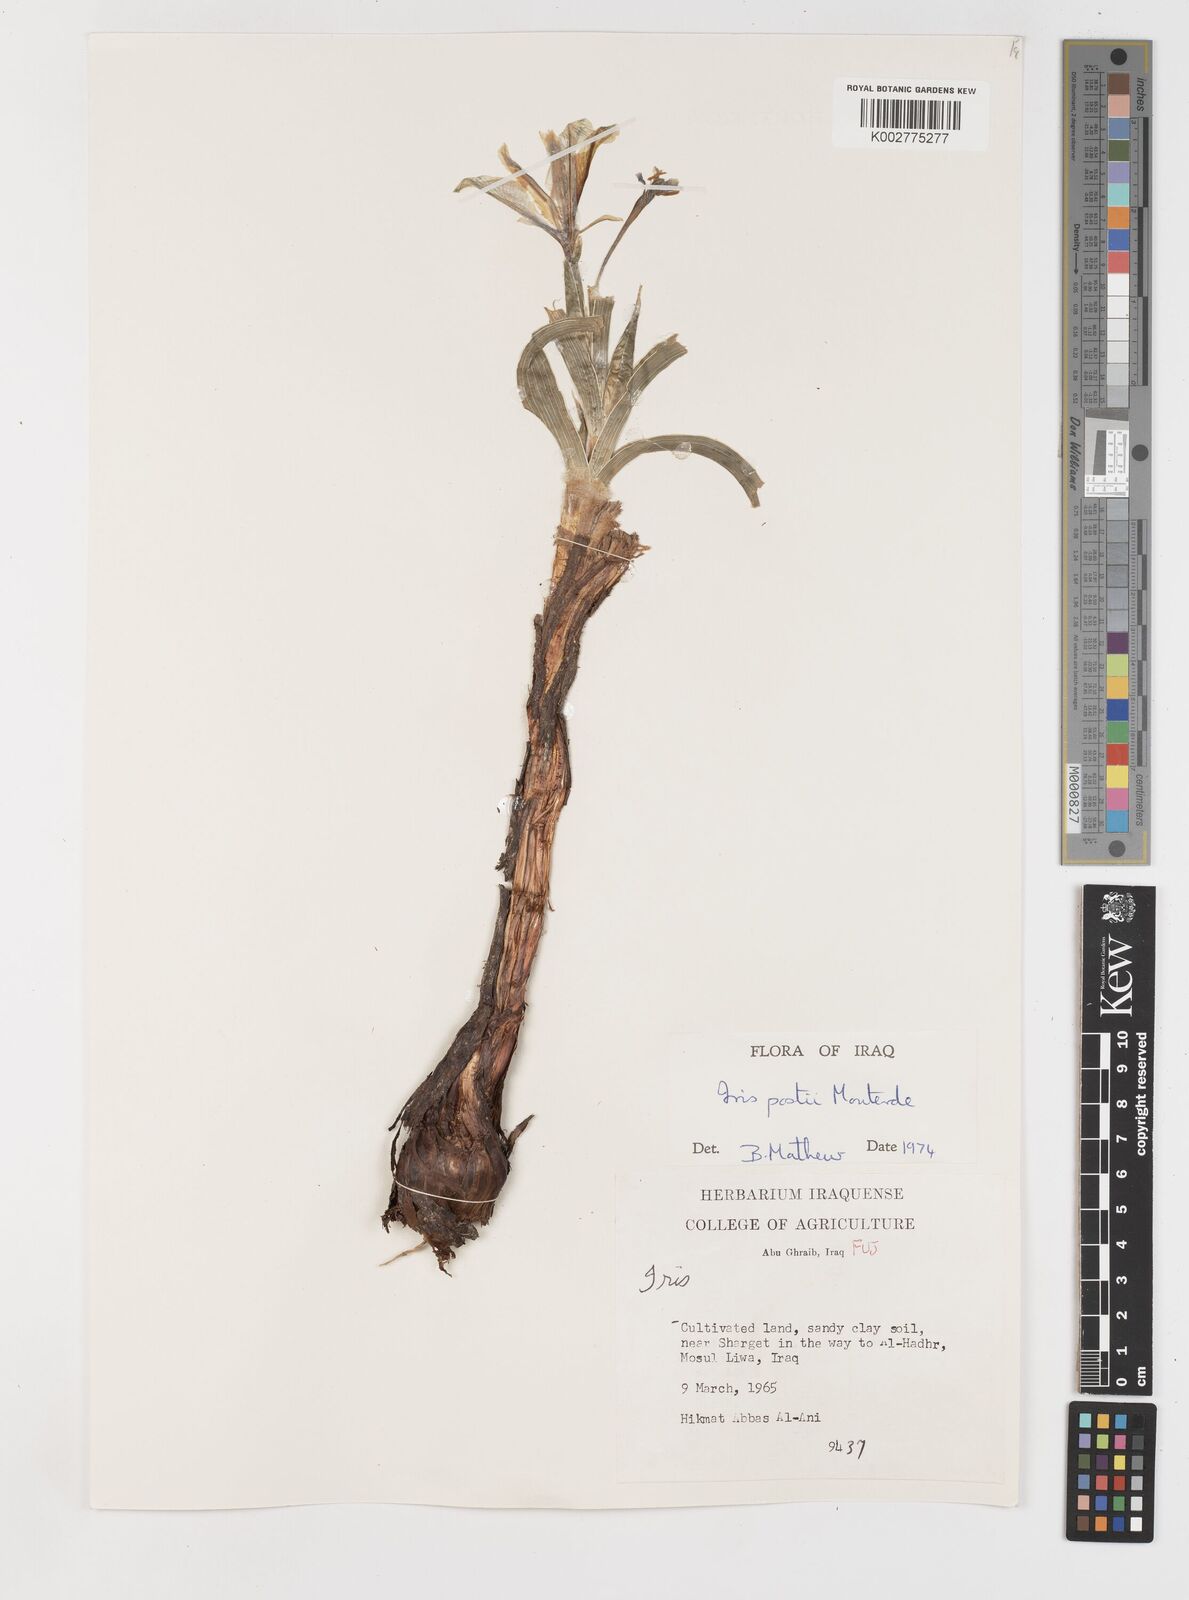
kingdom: Plantae
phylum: Tracheophyta
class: Liliopsida
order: Asparagales
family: Iridaceae
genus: Iris
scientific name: Iris postii
